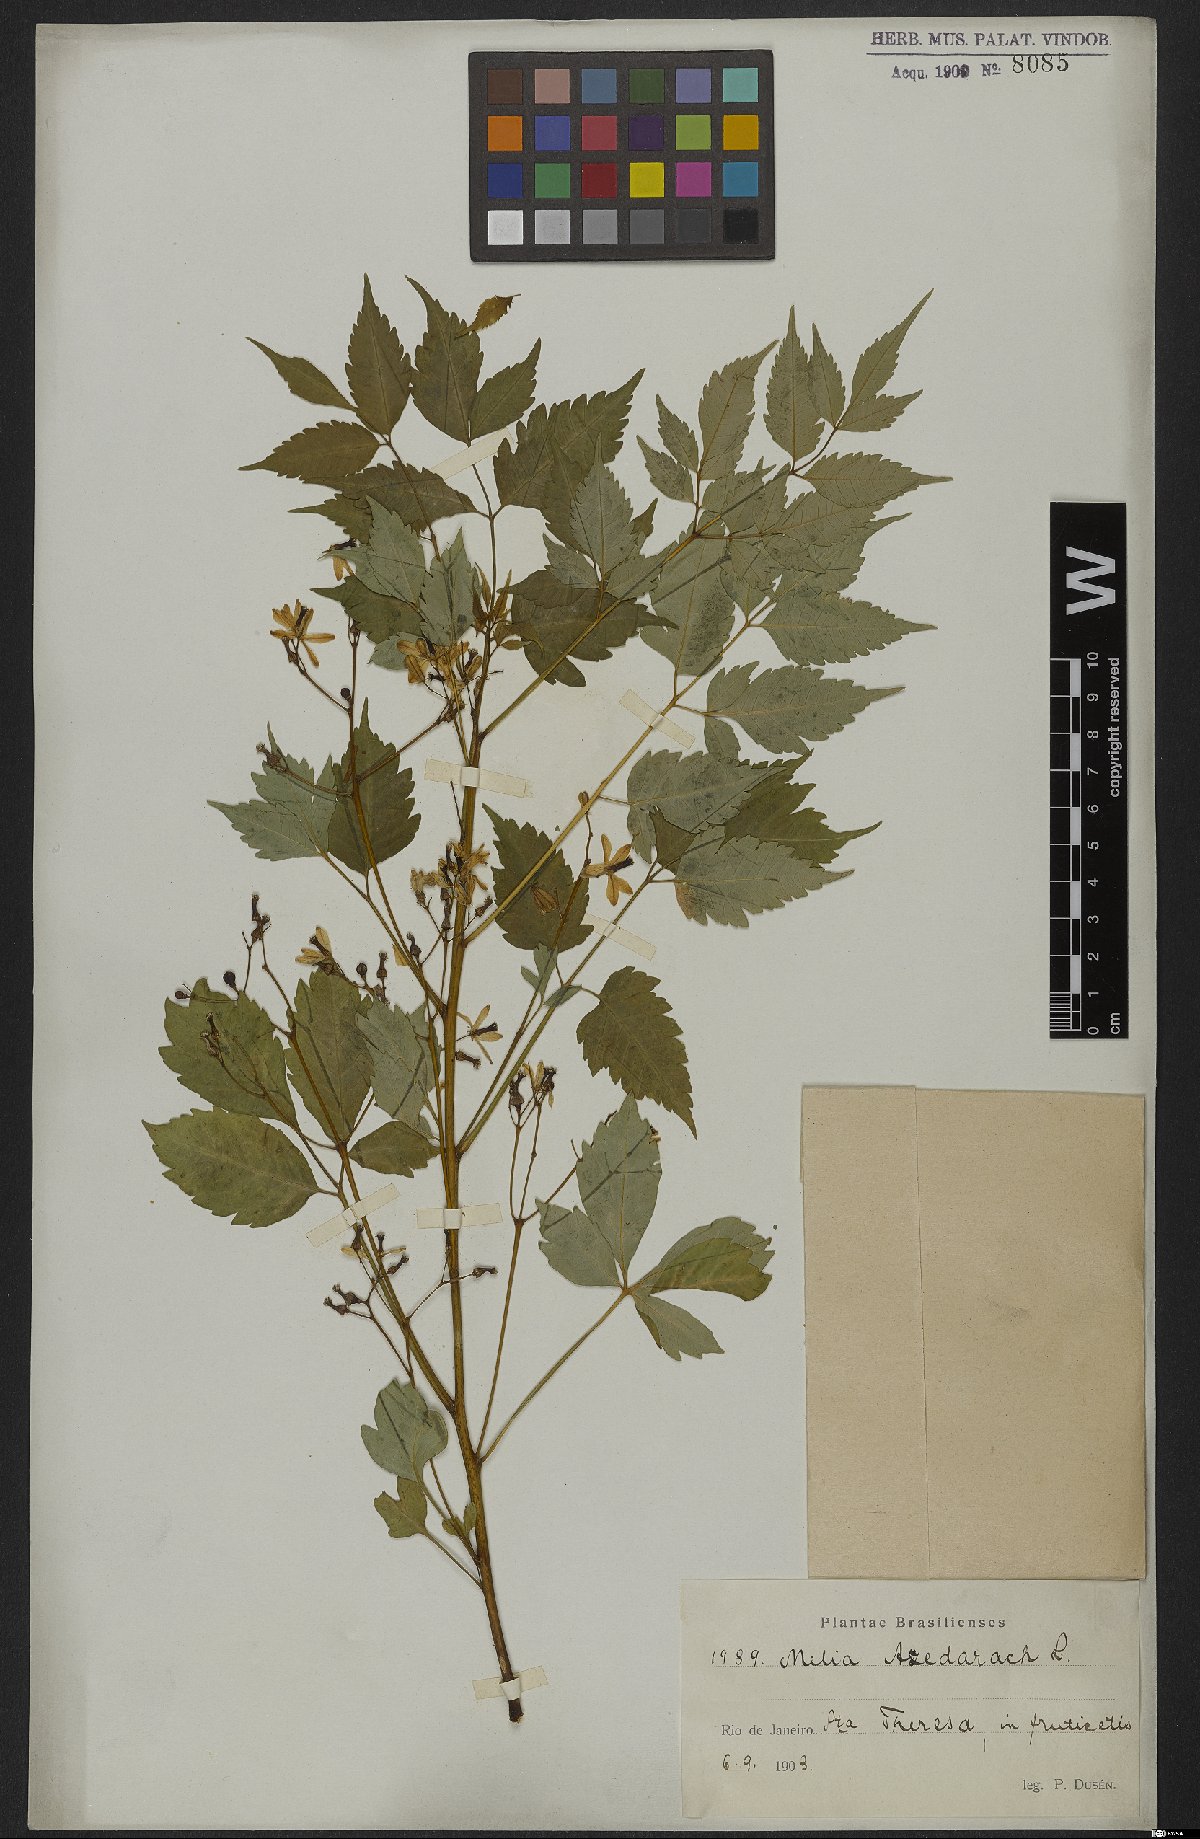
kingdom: Plantae
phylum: Tracheophyta
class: Magnoliopsida
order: Sapindales
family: Meliaceae
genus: Melia
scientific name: Melia azedarach
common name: Chinaberrytree
